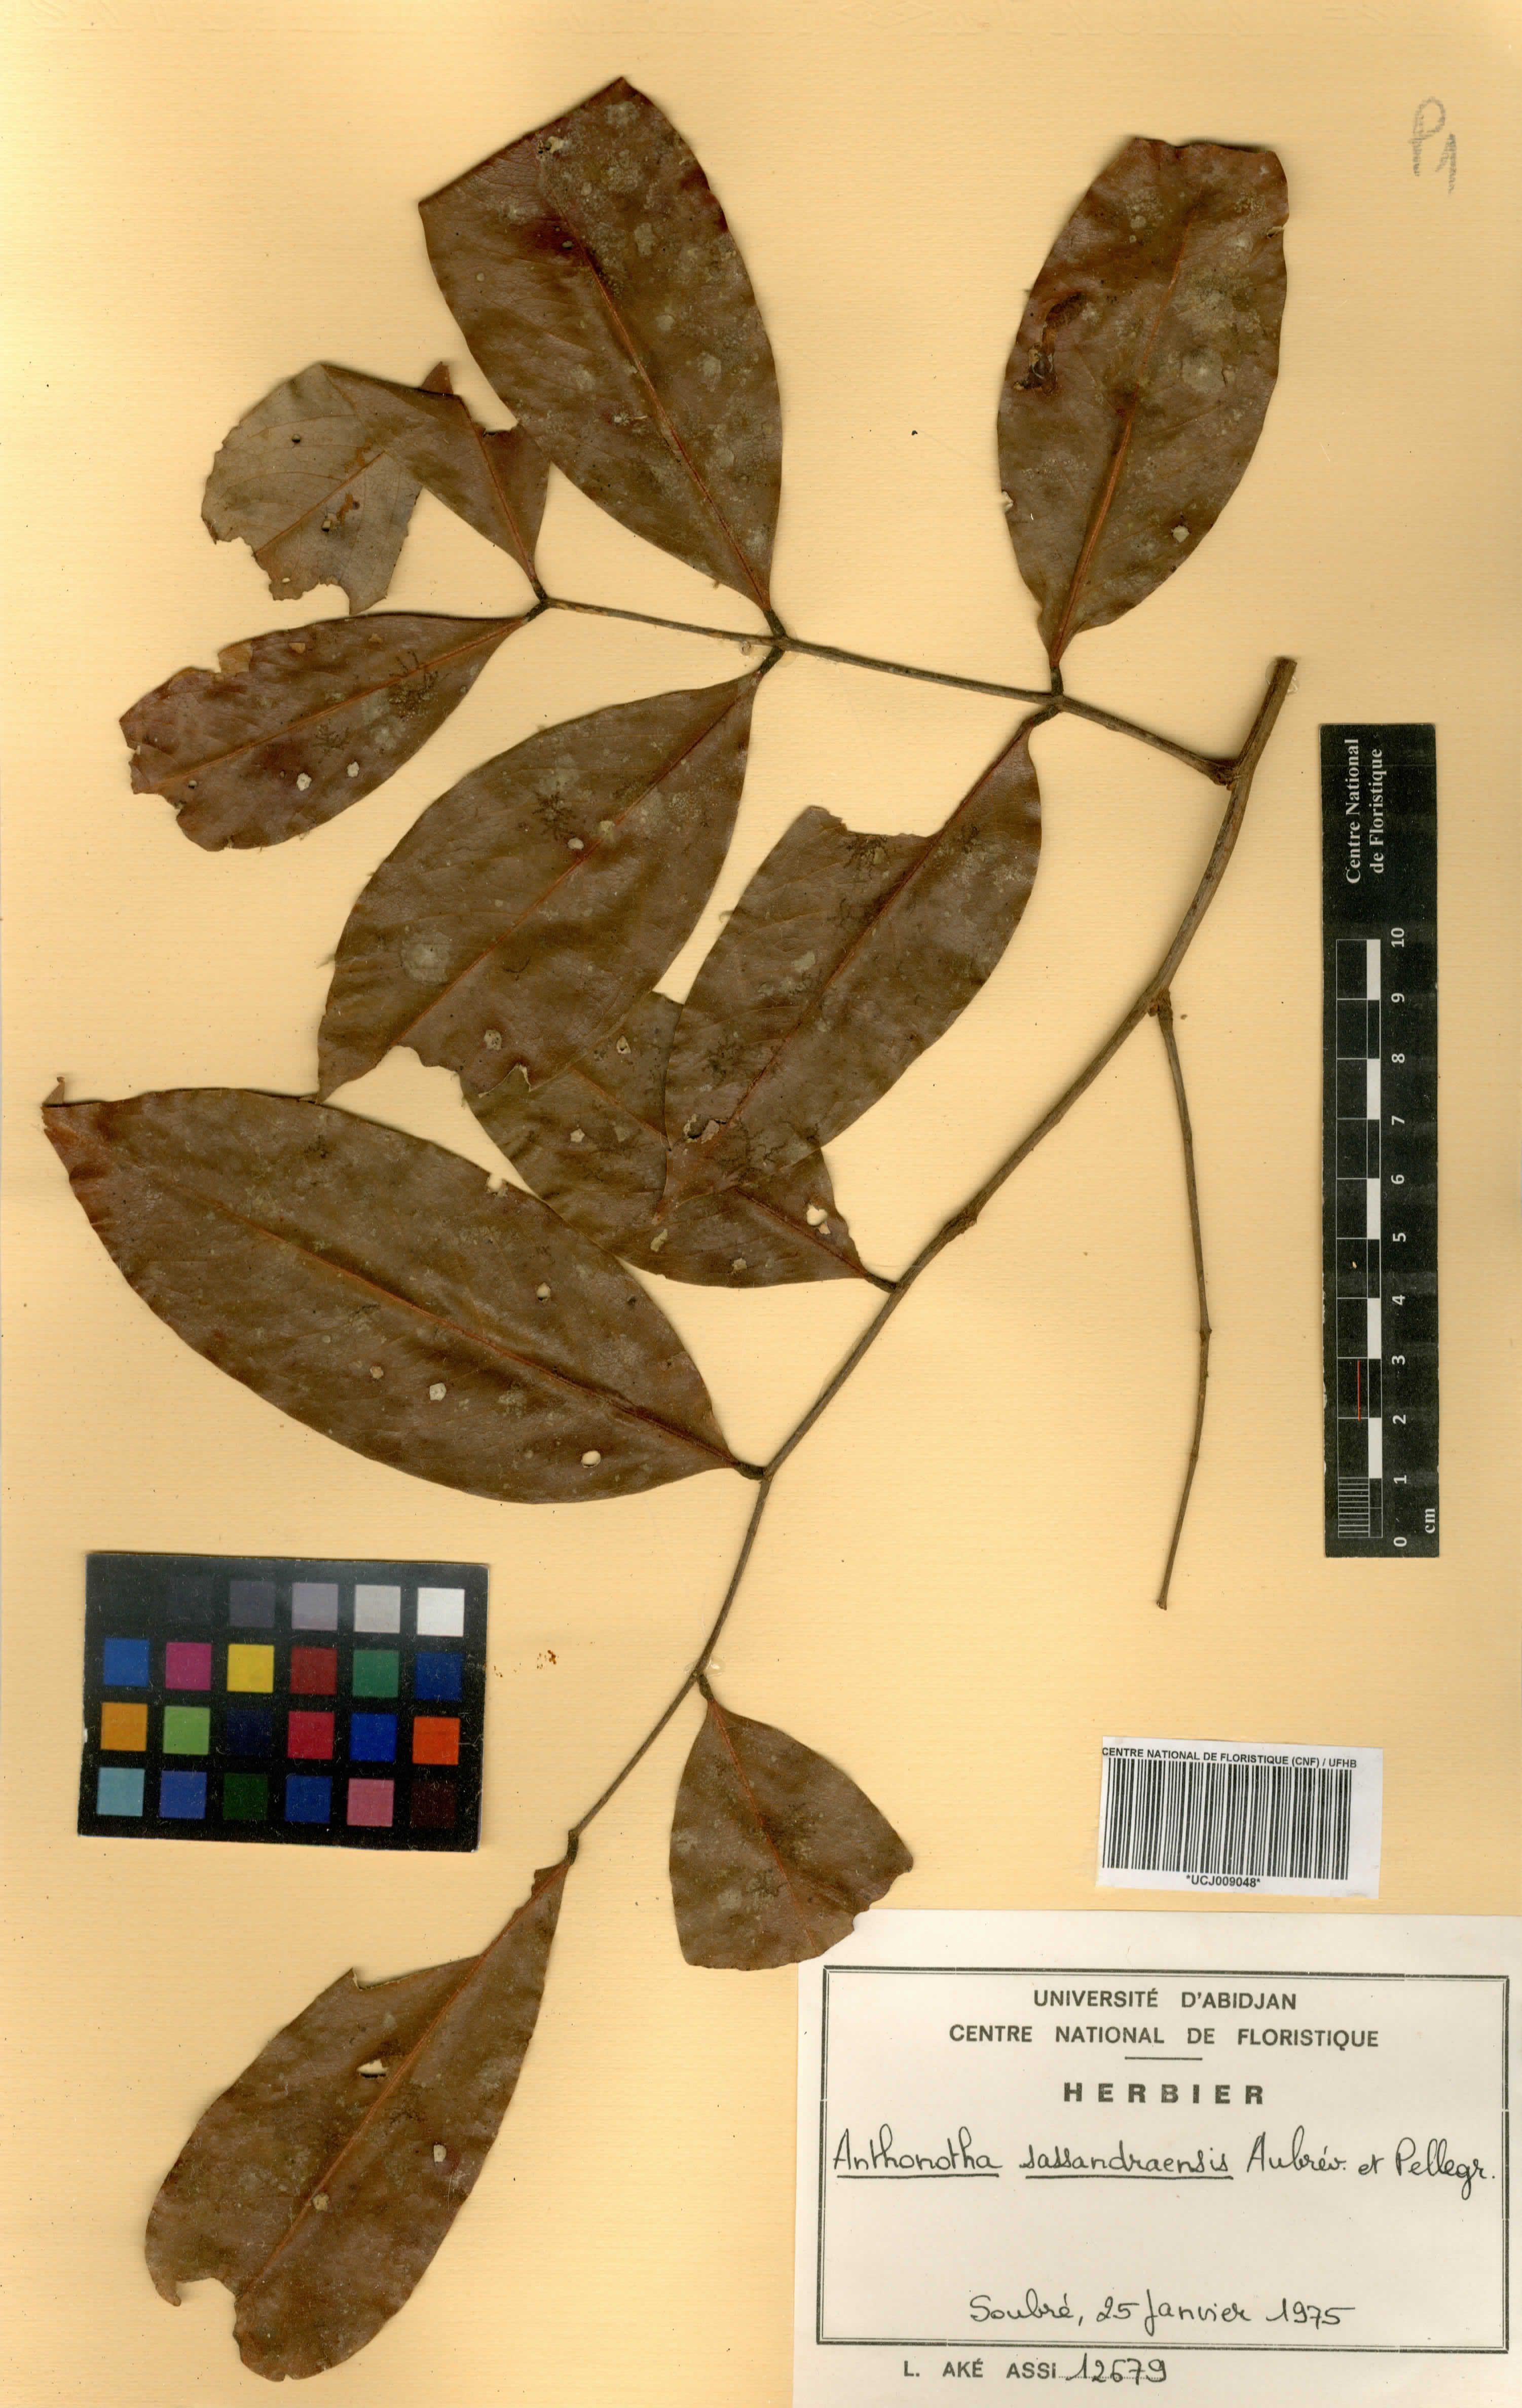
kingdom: Plantae
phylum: Tracheophyta
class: Magnoliopsida
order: Fabales
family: Fabaceae
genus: Anthonotha
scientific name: Anthonotha crassifolia
